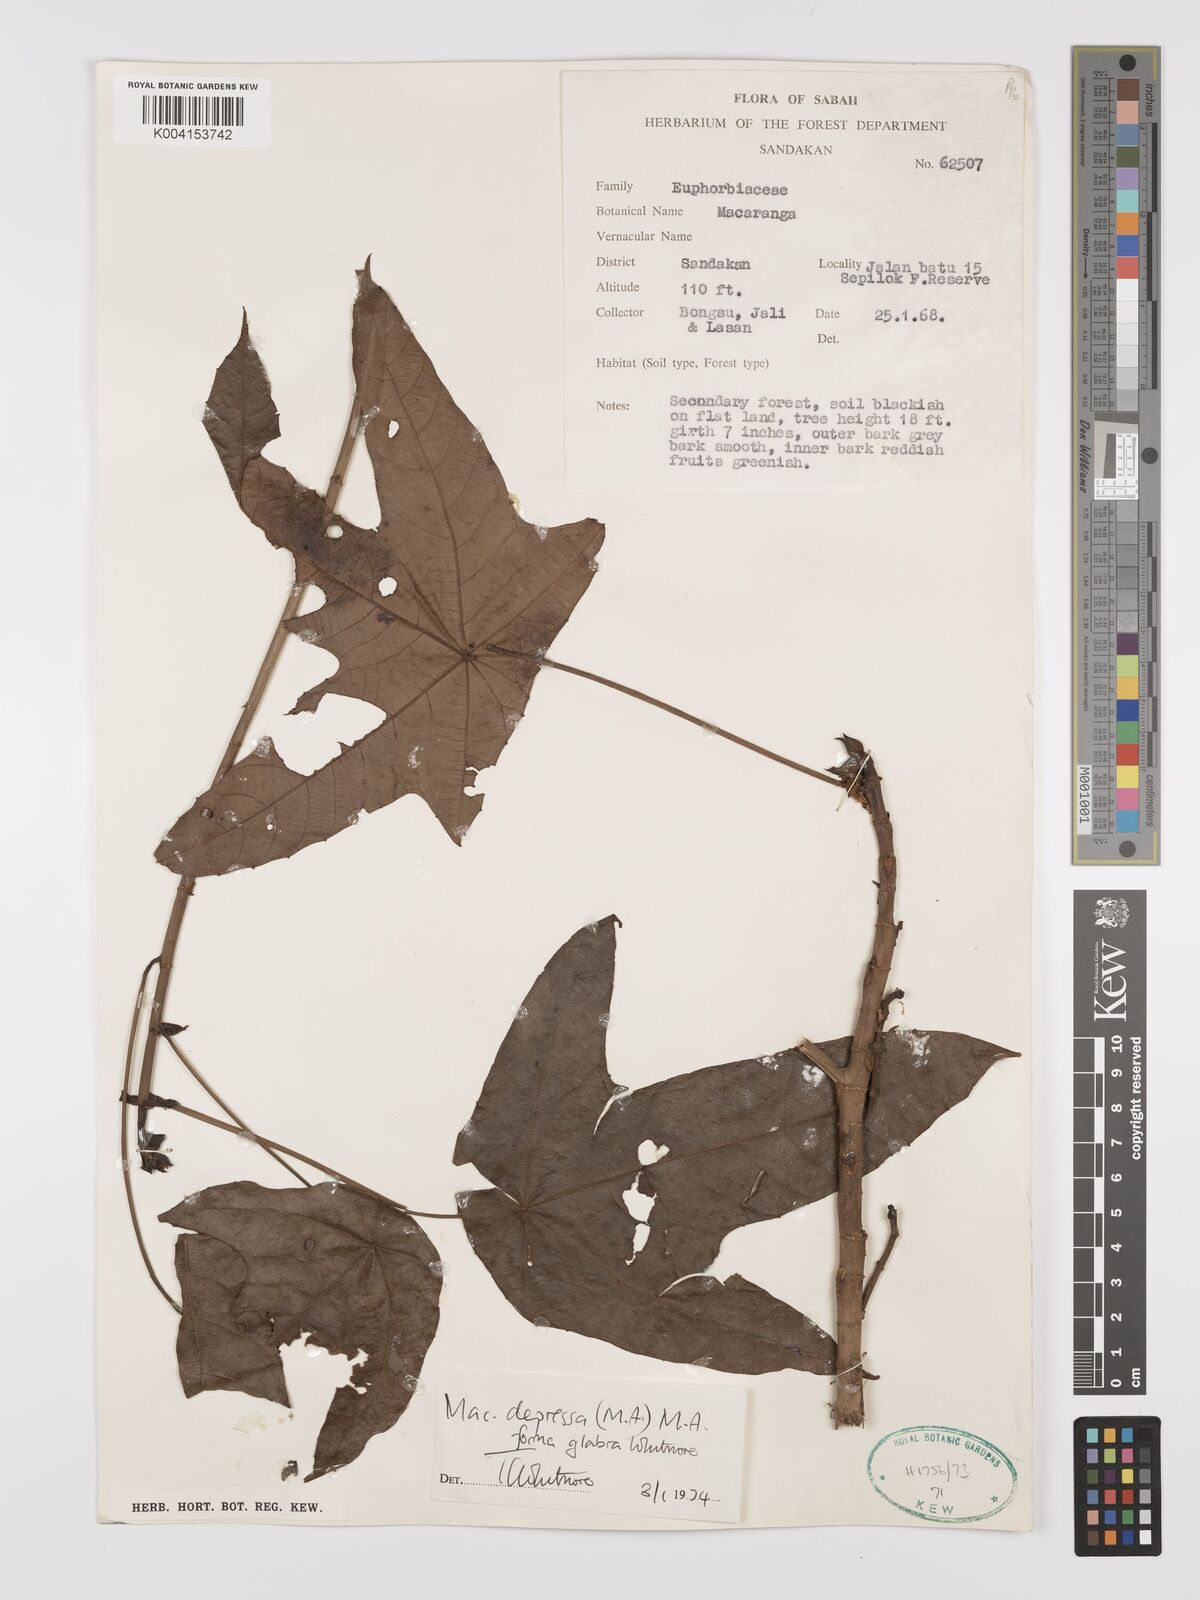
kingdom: Plantae
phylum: Tracheophyta
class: Magnoliopsida
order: Malpighiales
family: Euphorbiaceae
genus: Macaranga
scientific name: Macaranga depressa
